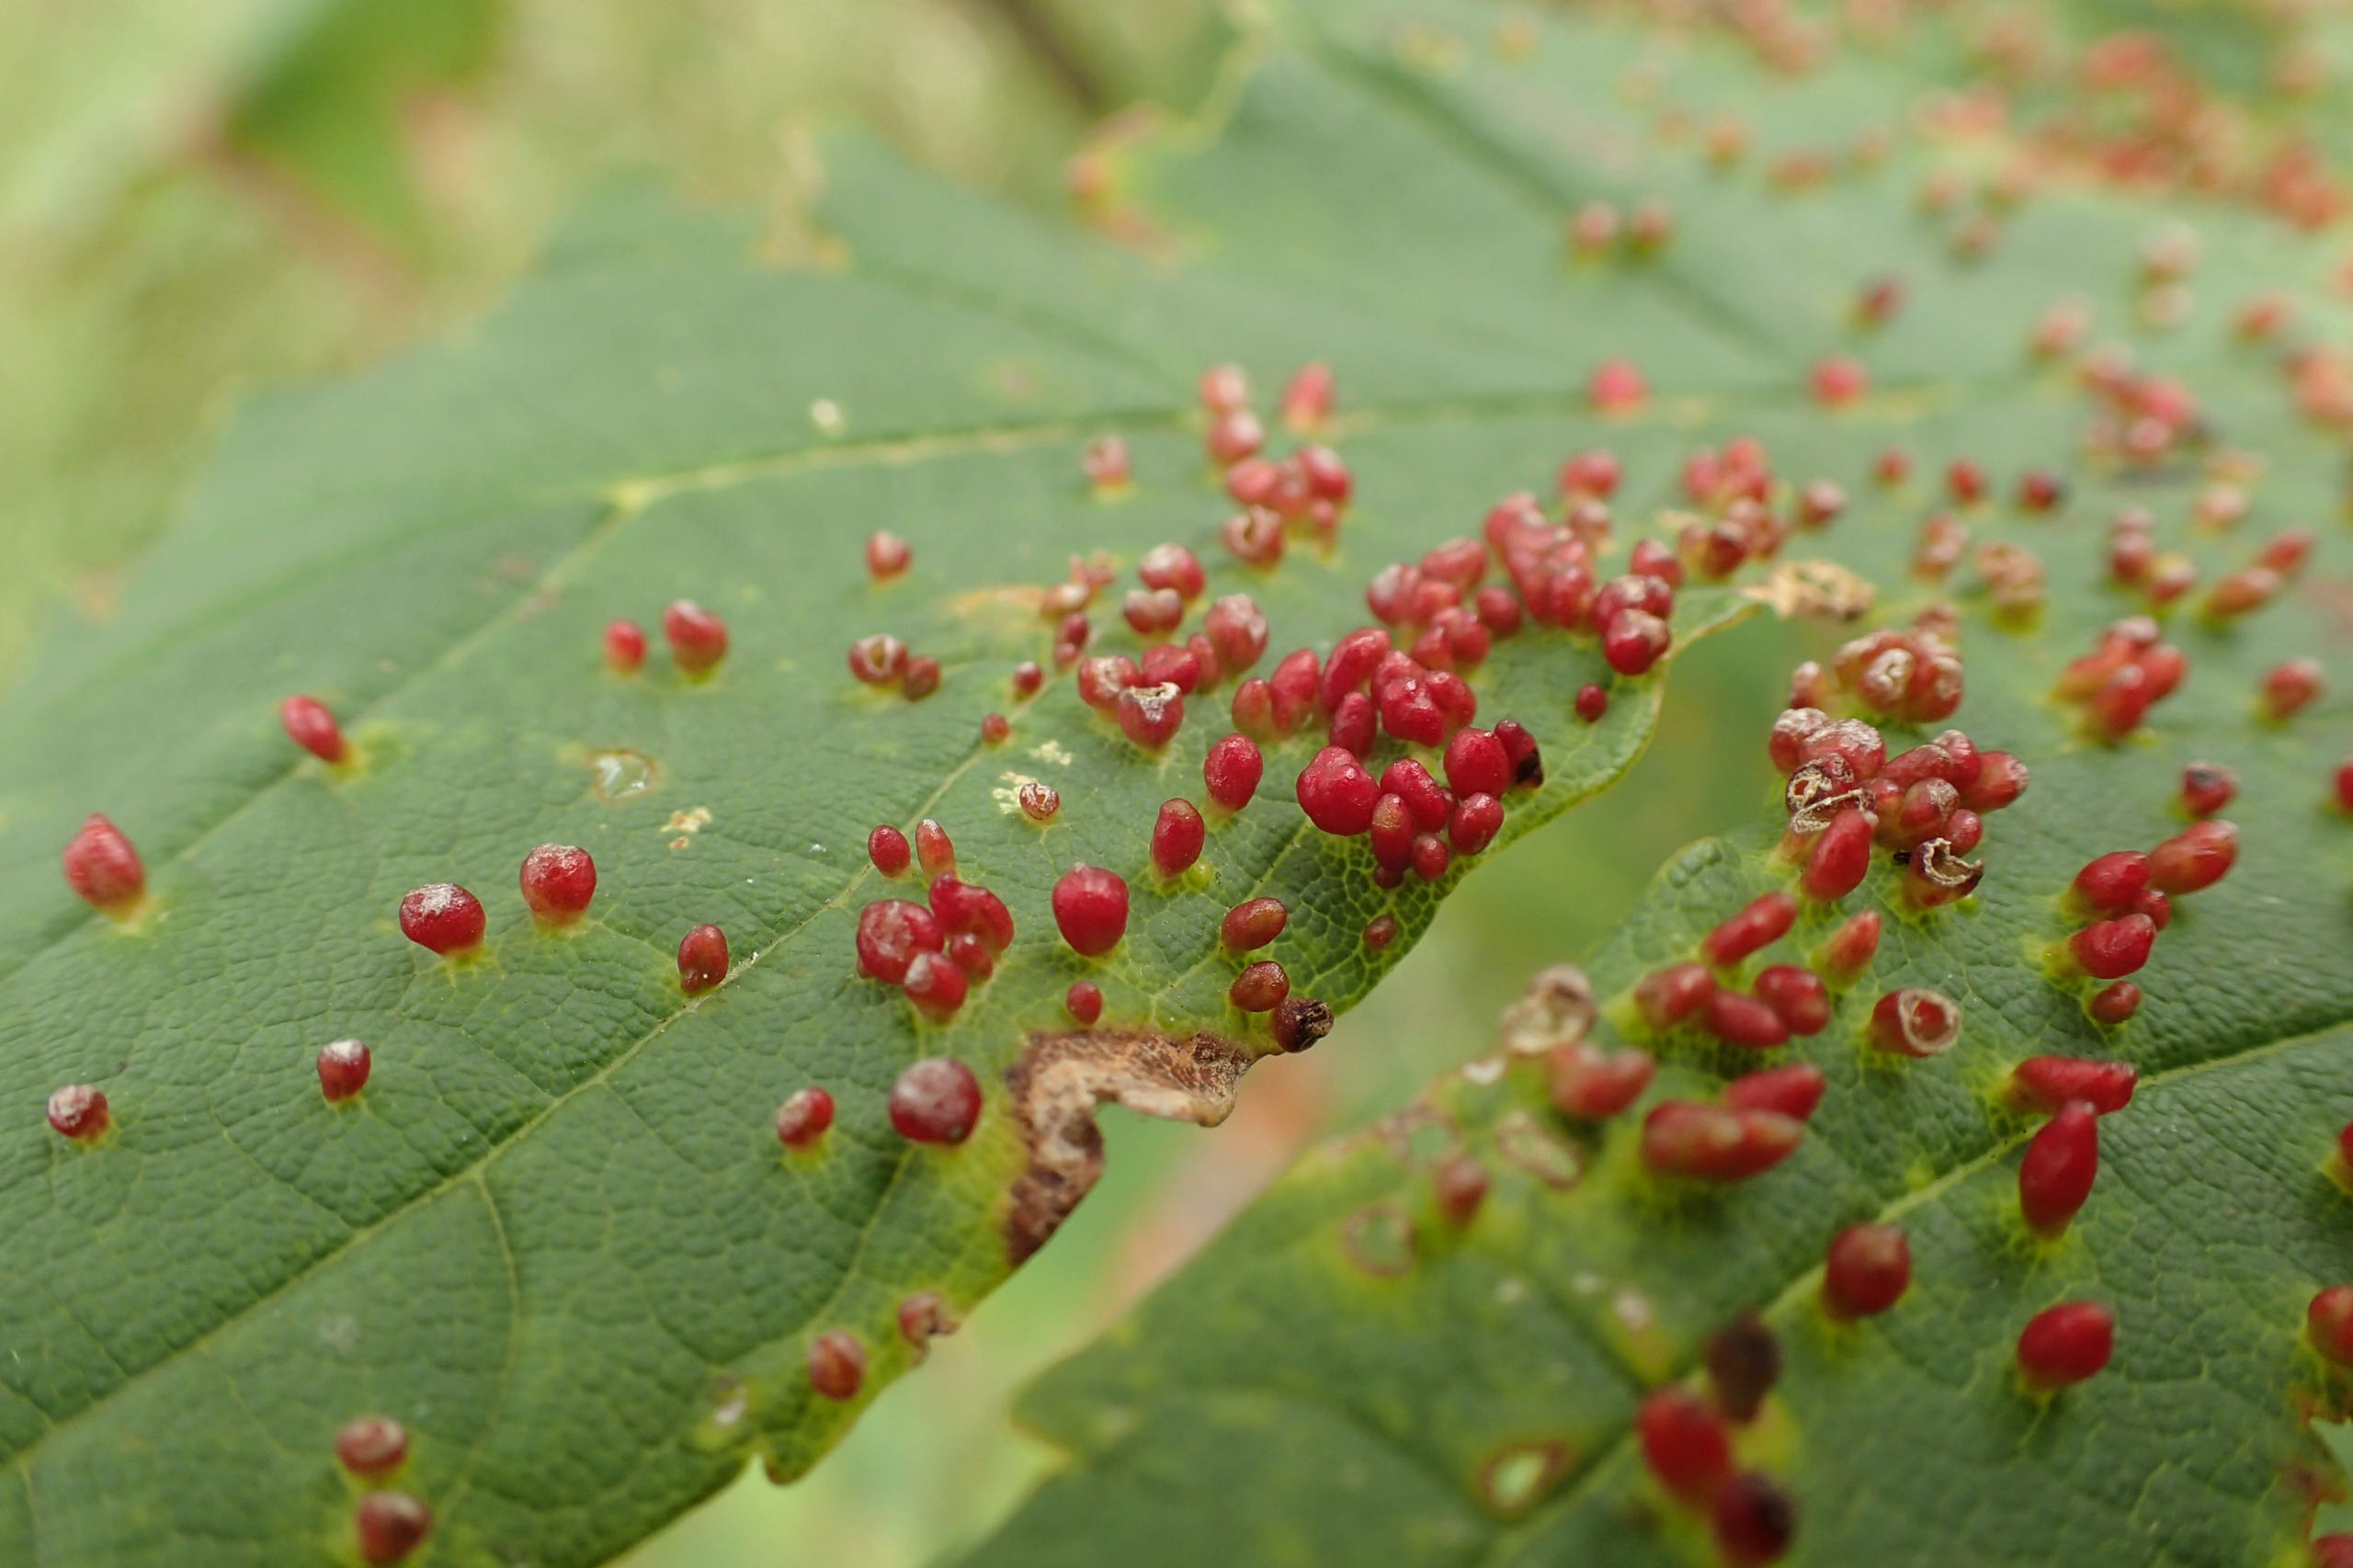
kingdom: Animalia
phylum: Arthropoda
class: Arachnida
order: Trombidiformes
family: Eriophyidae
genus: Aceria
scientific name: Aceria cephaloneus
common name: Ahornvortegalmide
